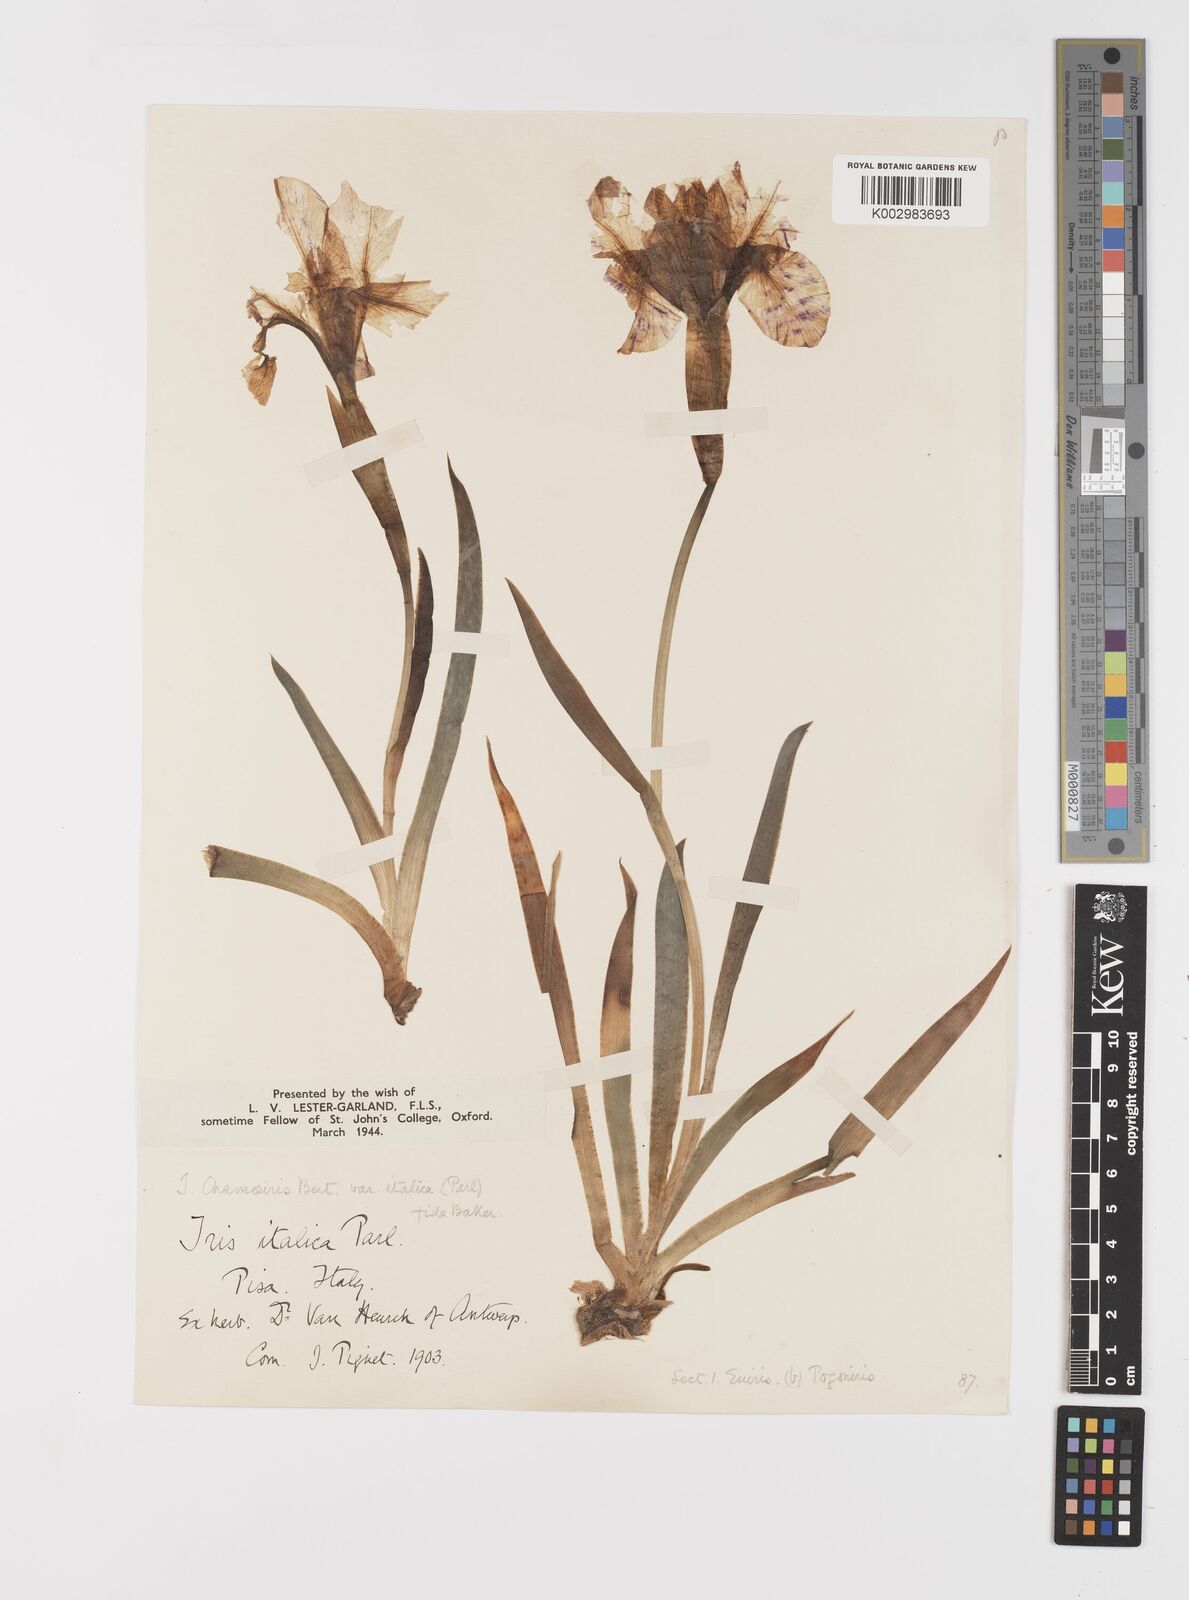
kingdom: Plantae
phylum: Tracheophyta
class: Liliopsida
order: Asparagales
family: Iridaceae
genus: Iris
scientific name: Iris lutescens
